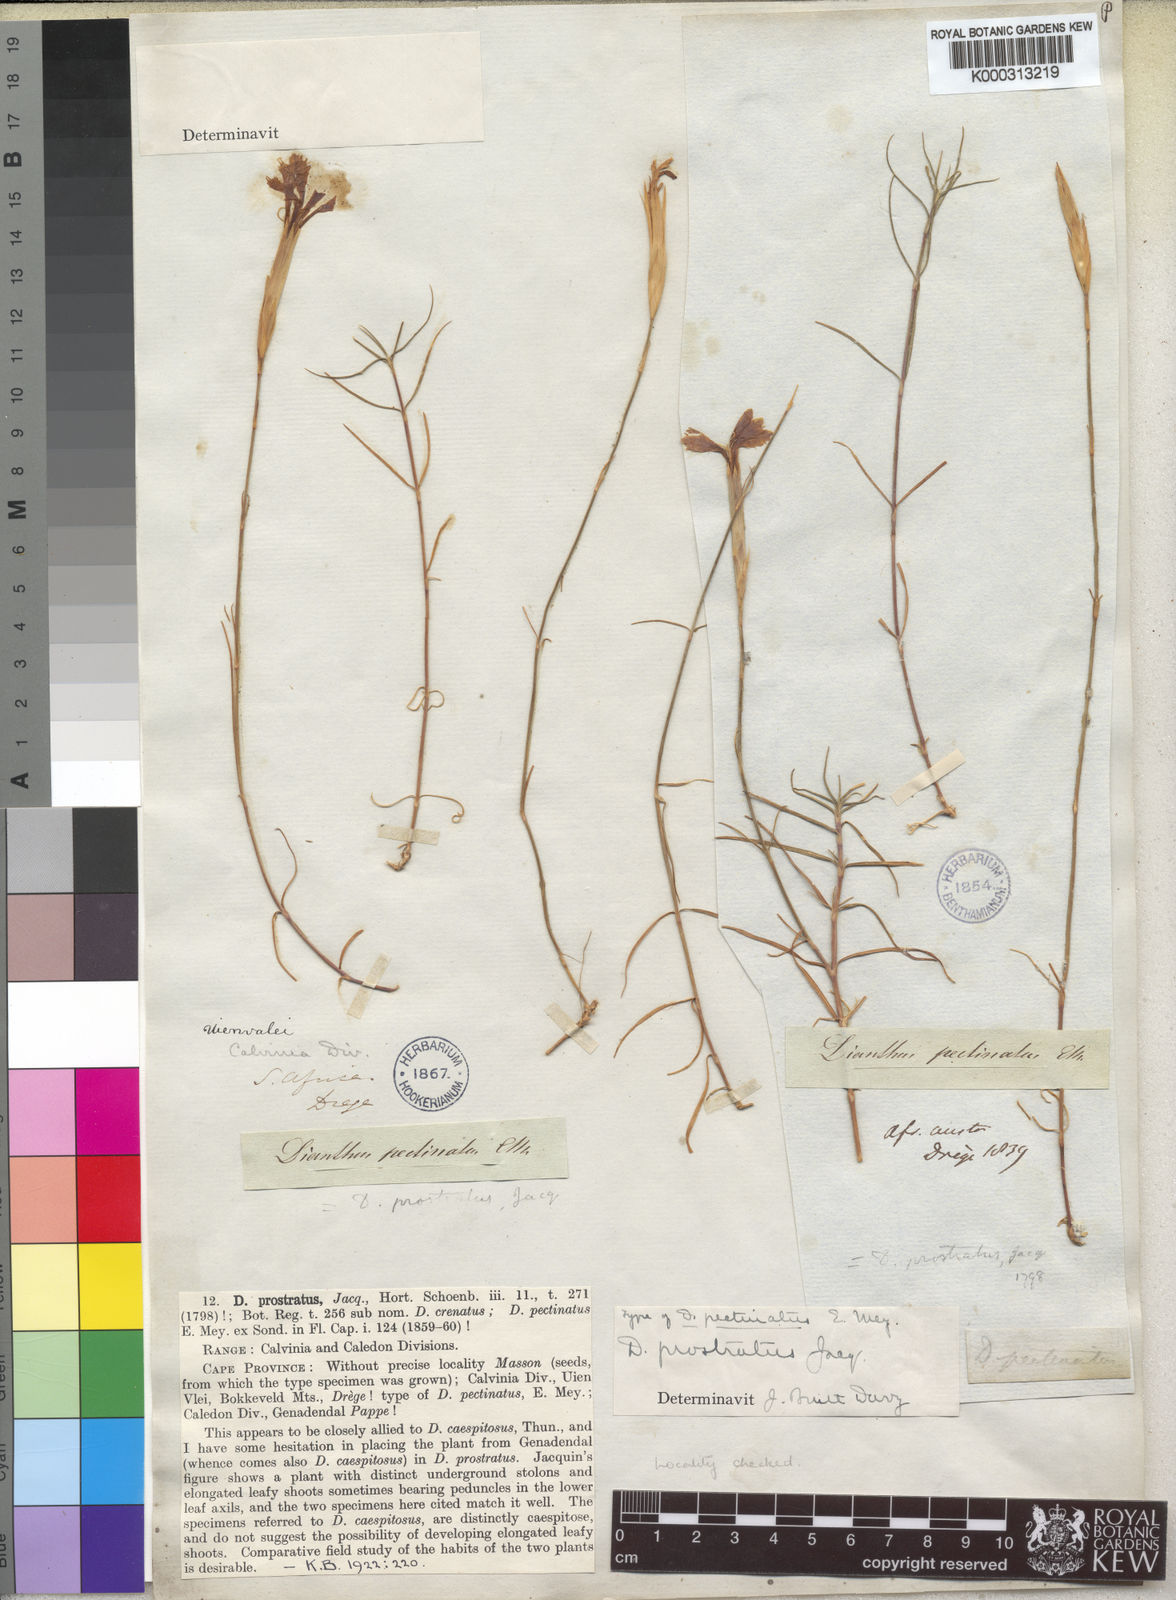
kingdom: Plantae
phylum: Tracheophyta
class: Magnoliopsida
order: Caryophyllales
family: Caryophyllaceae
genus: Dianthus
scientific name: Dianthus caespitosus
